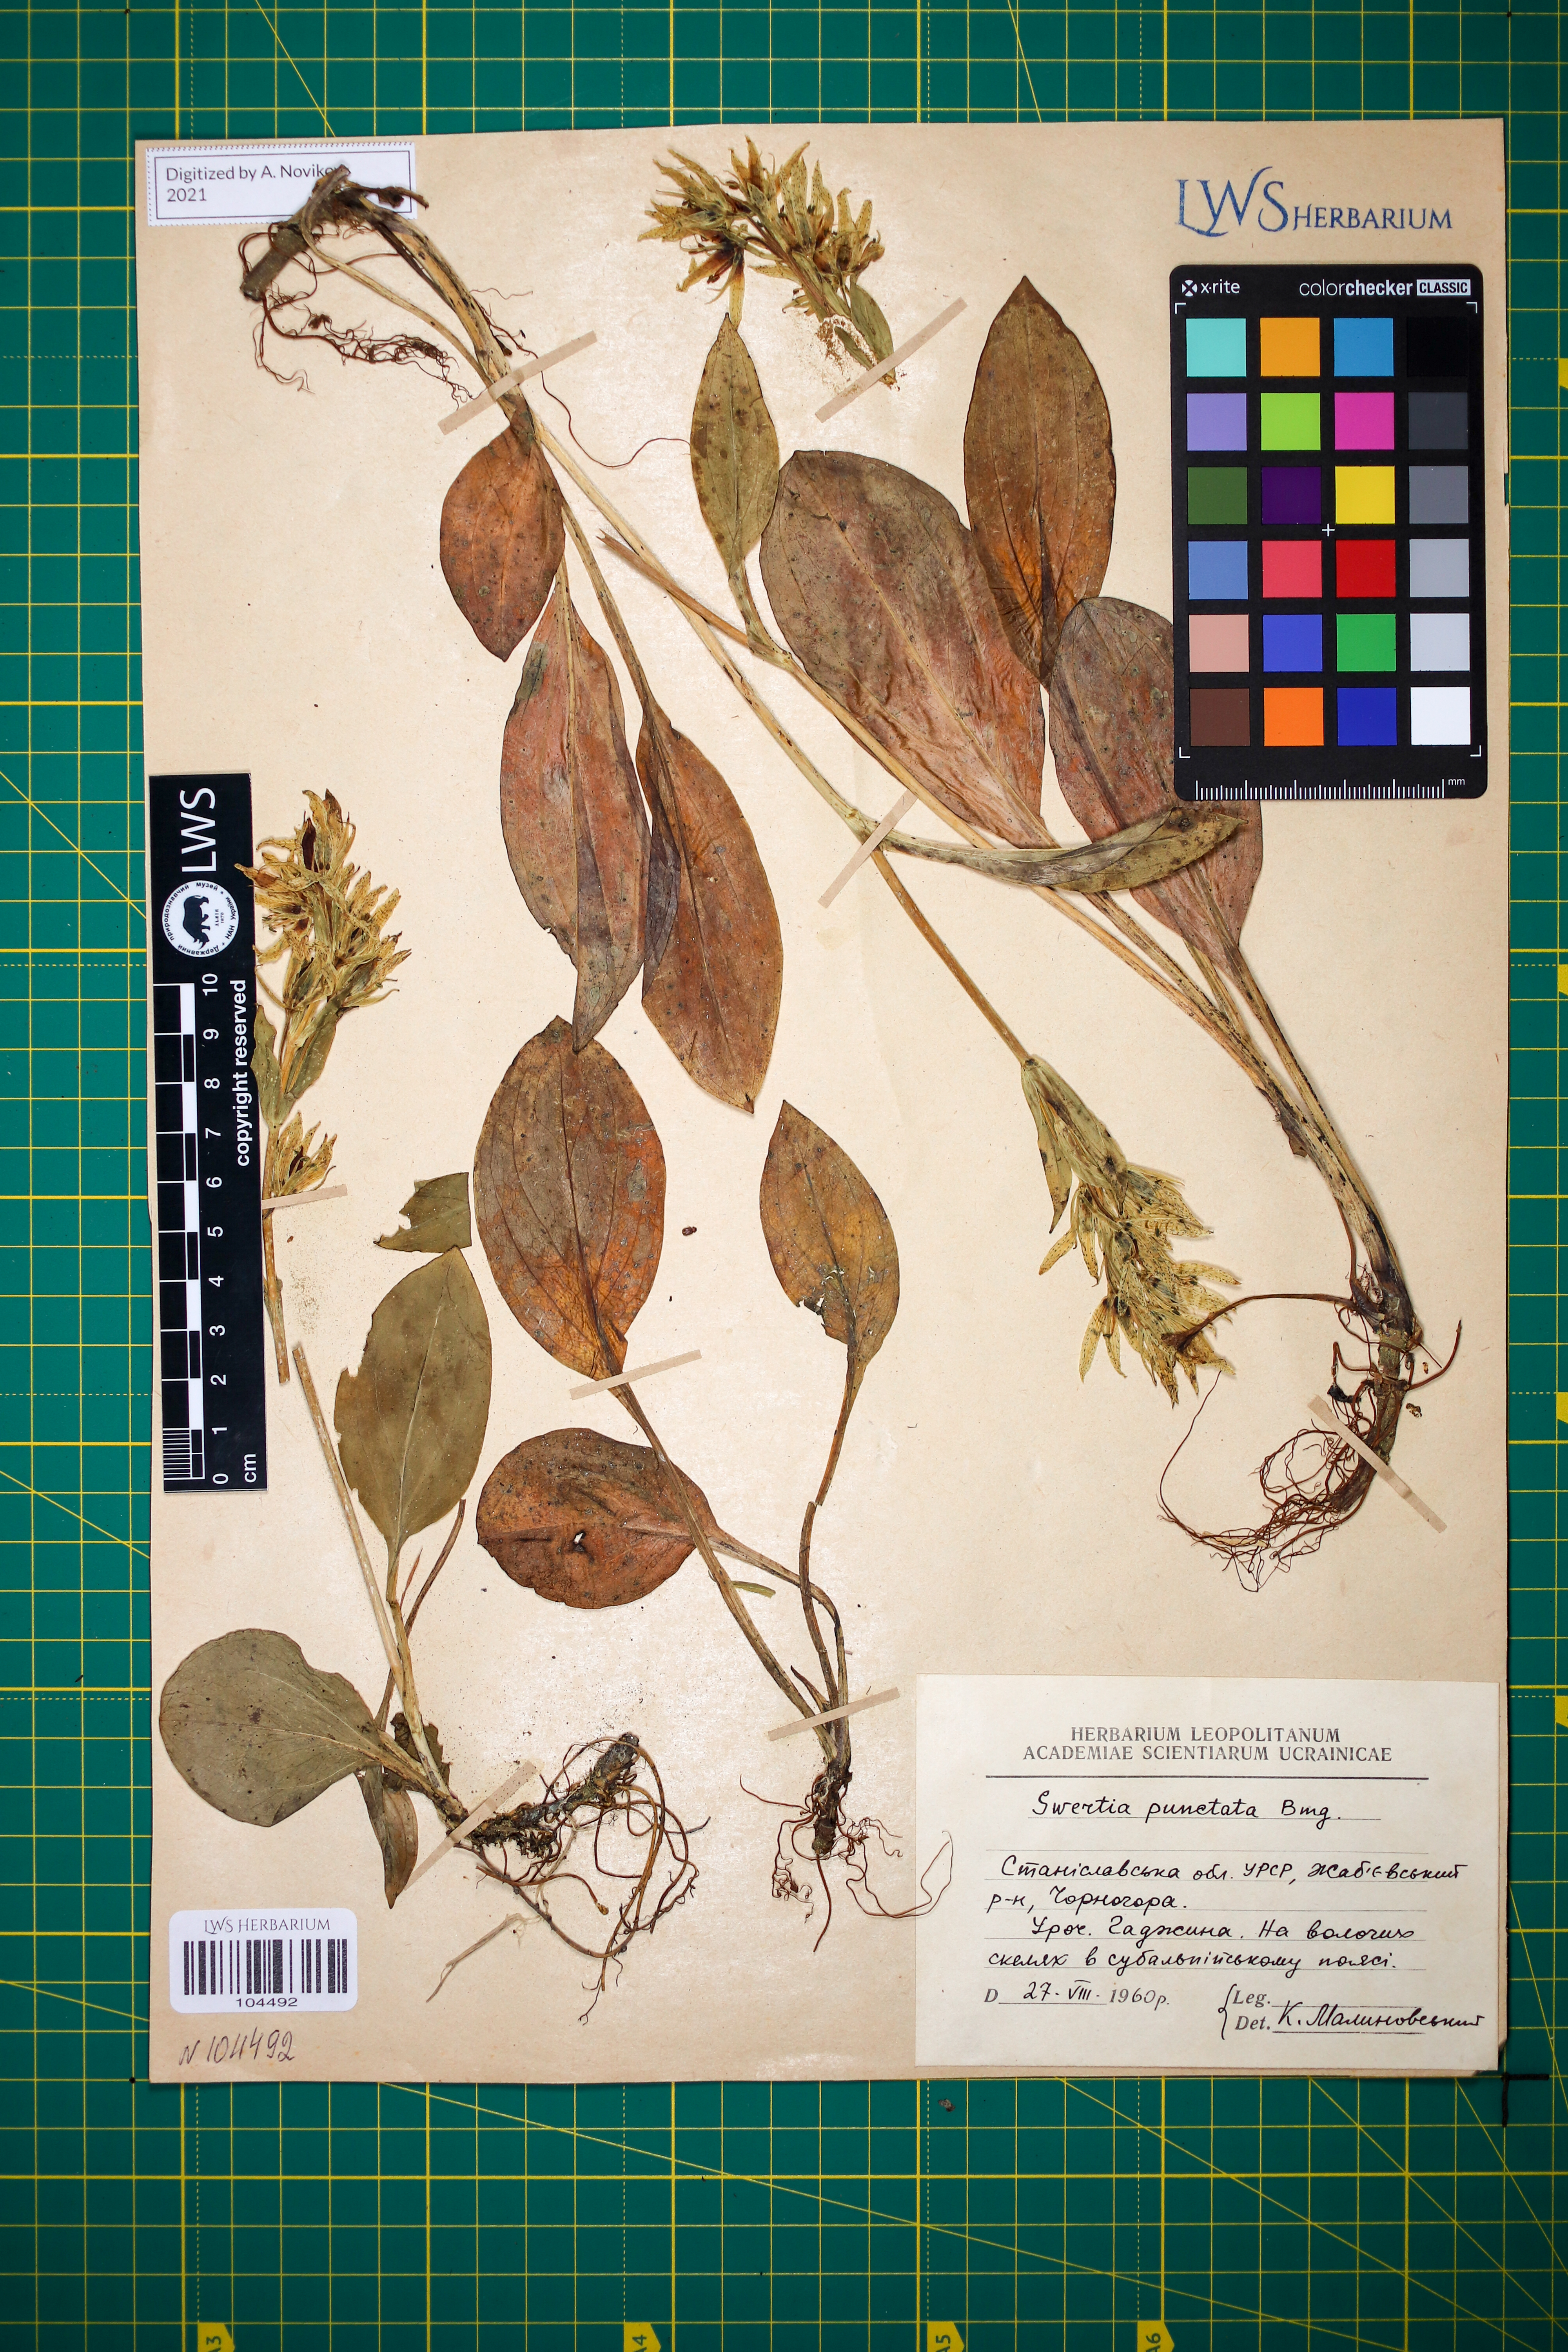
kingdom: Plantae
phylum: Tracheophyta
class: Magnoliopsida
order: Gentianales
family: Gentianaceae
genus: Swertia
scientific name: Swertia perennis
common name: Alpine bog swertia
